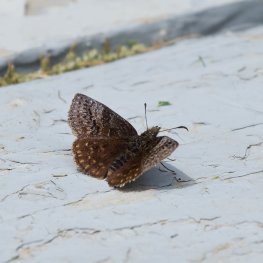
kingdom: Animalia
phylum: Arthropoda
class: Insecta
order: Lepidoptera
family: Hesperiidae
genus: Erynnis
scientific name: Erynnis icelus
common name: Dreamy Duskywing
